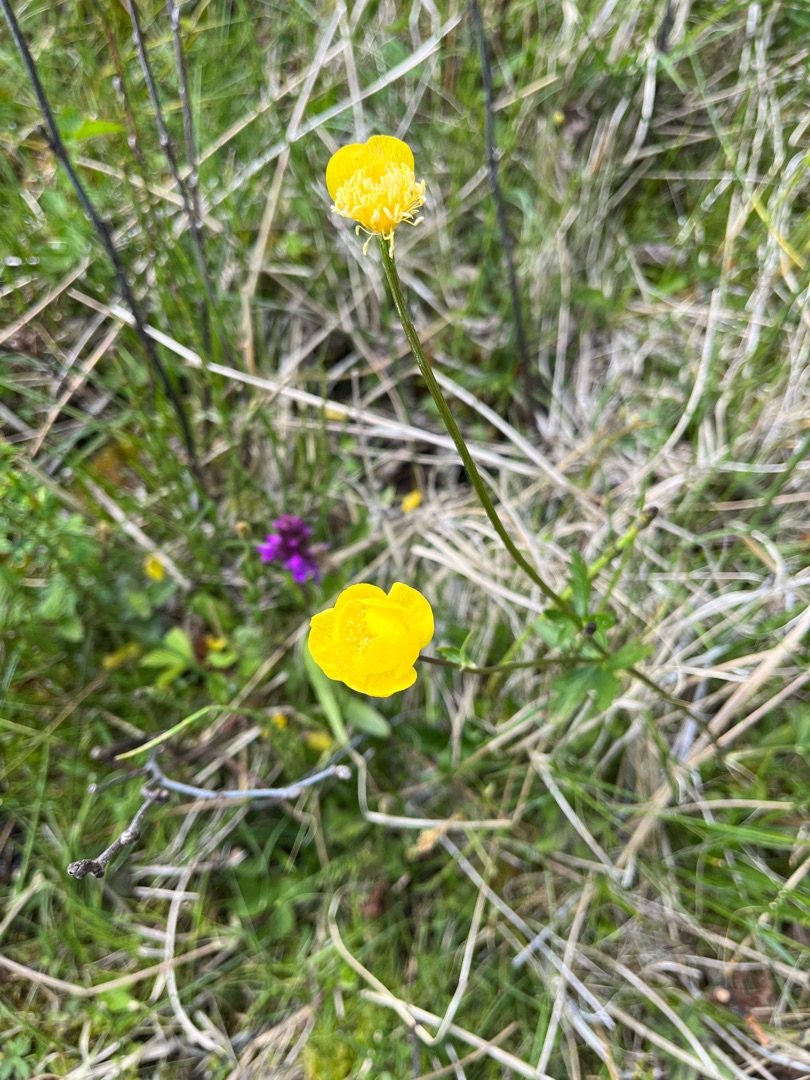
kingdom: Plantae
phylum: Tracheophyta
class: Magnoliopsida
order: Ranunculales
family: Ranunculaceae
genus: Trollius
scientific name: Trollius europaeus
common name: Engblomme
